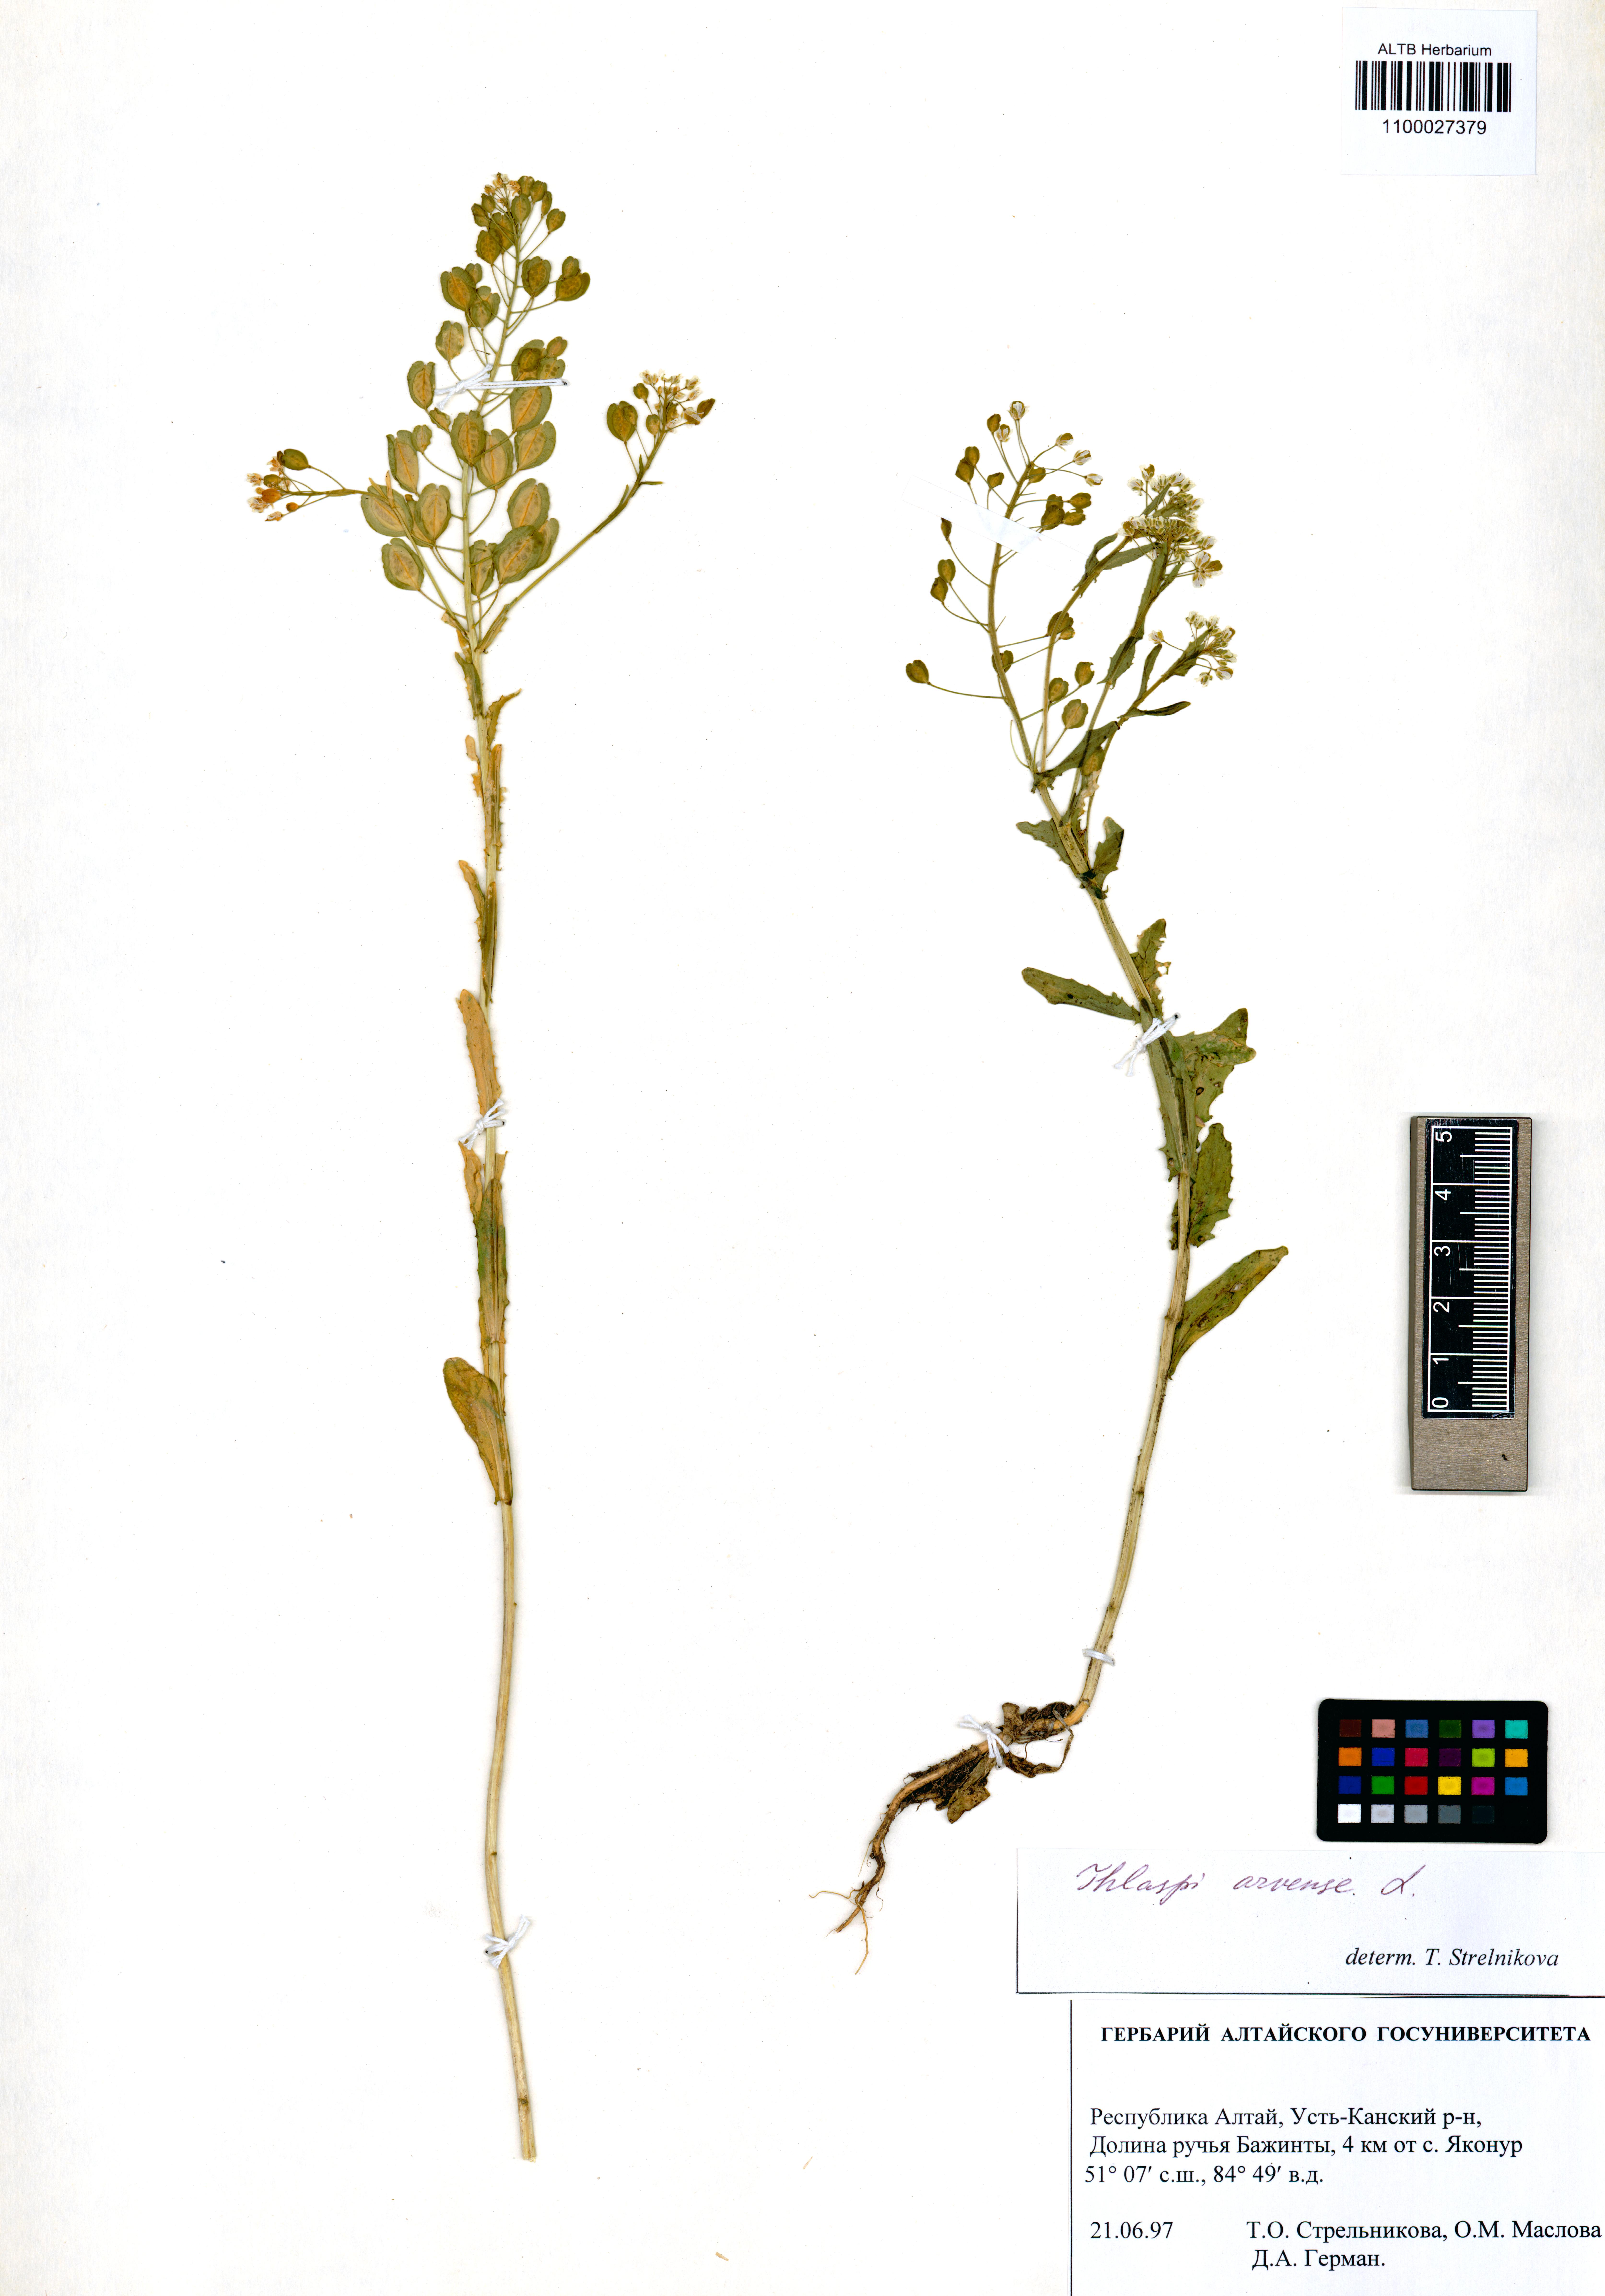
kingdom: Plantae
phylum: Tracheophyta
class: Magnoliopsida
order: Brassicales
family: Brassicaceae
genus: Thlaspi
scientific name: Thlaspi arvense
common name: Field pennycress
